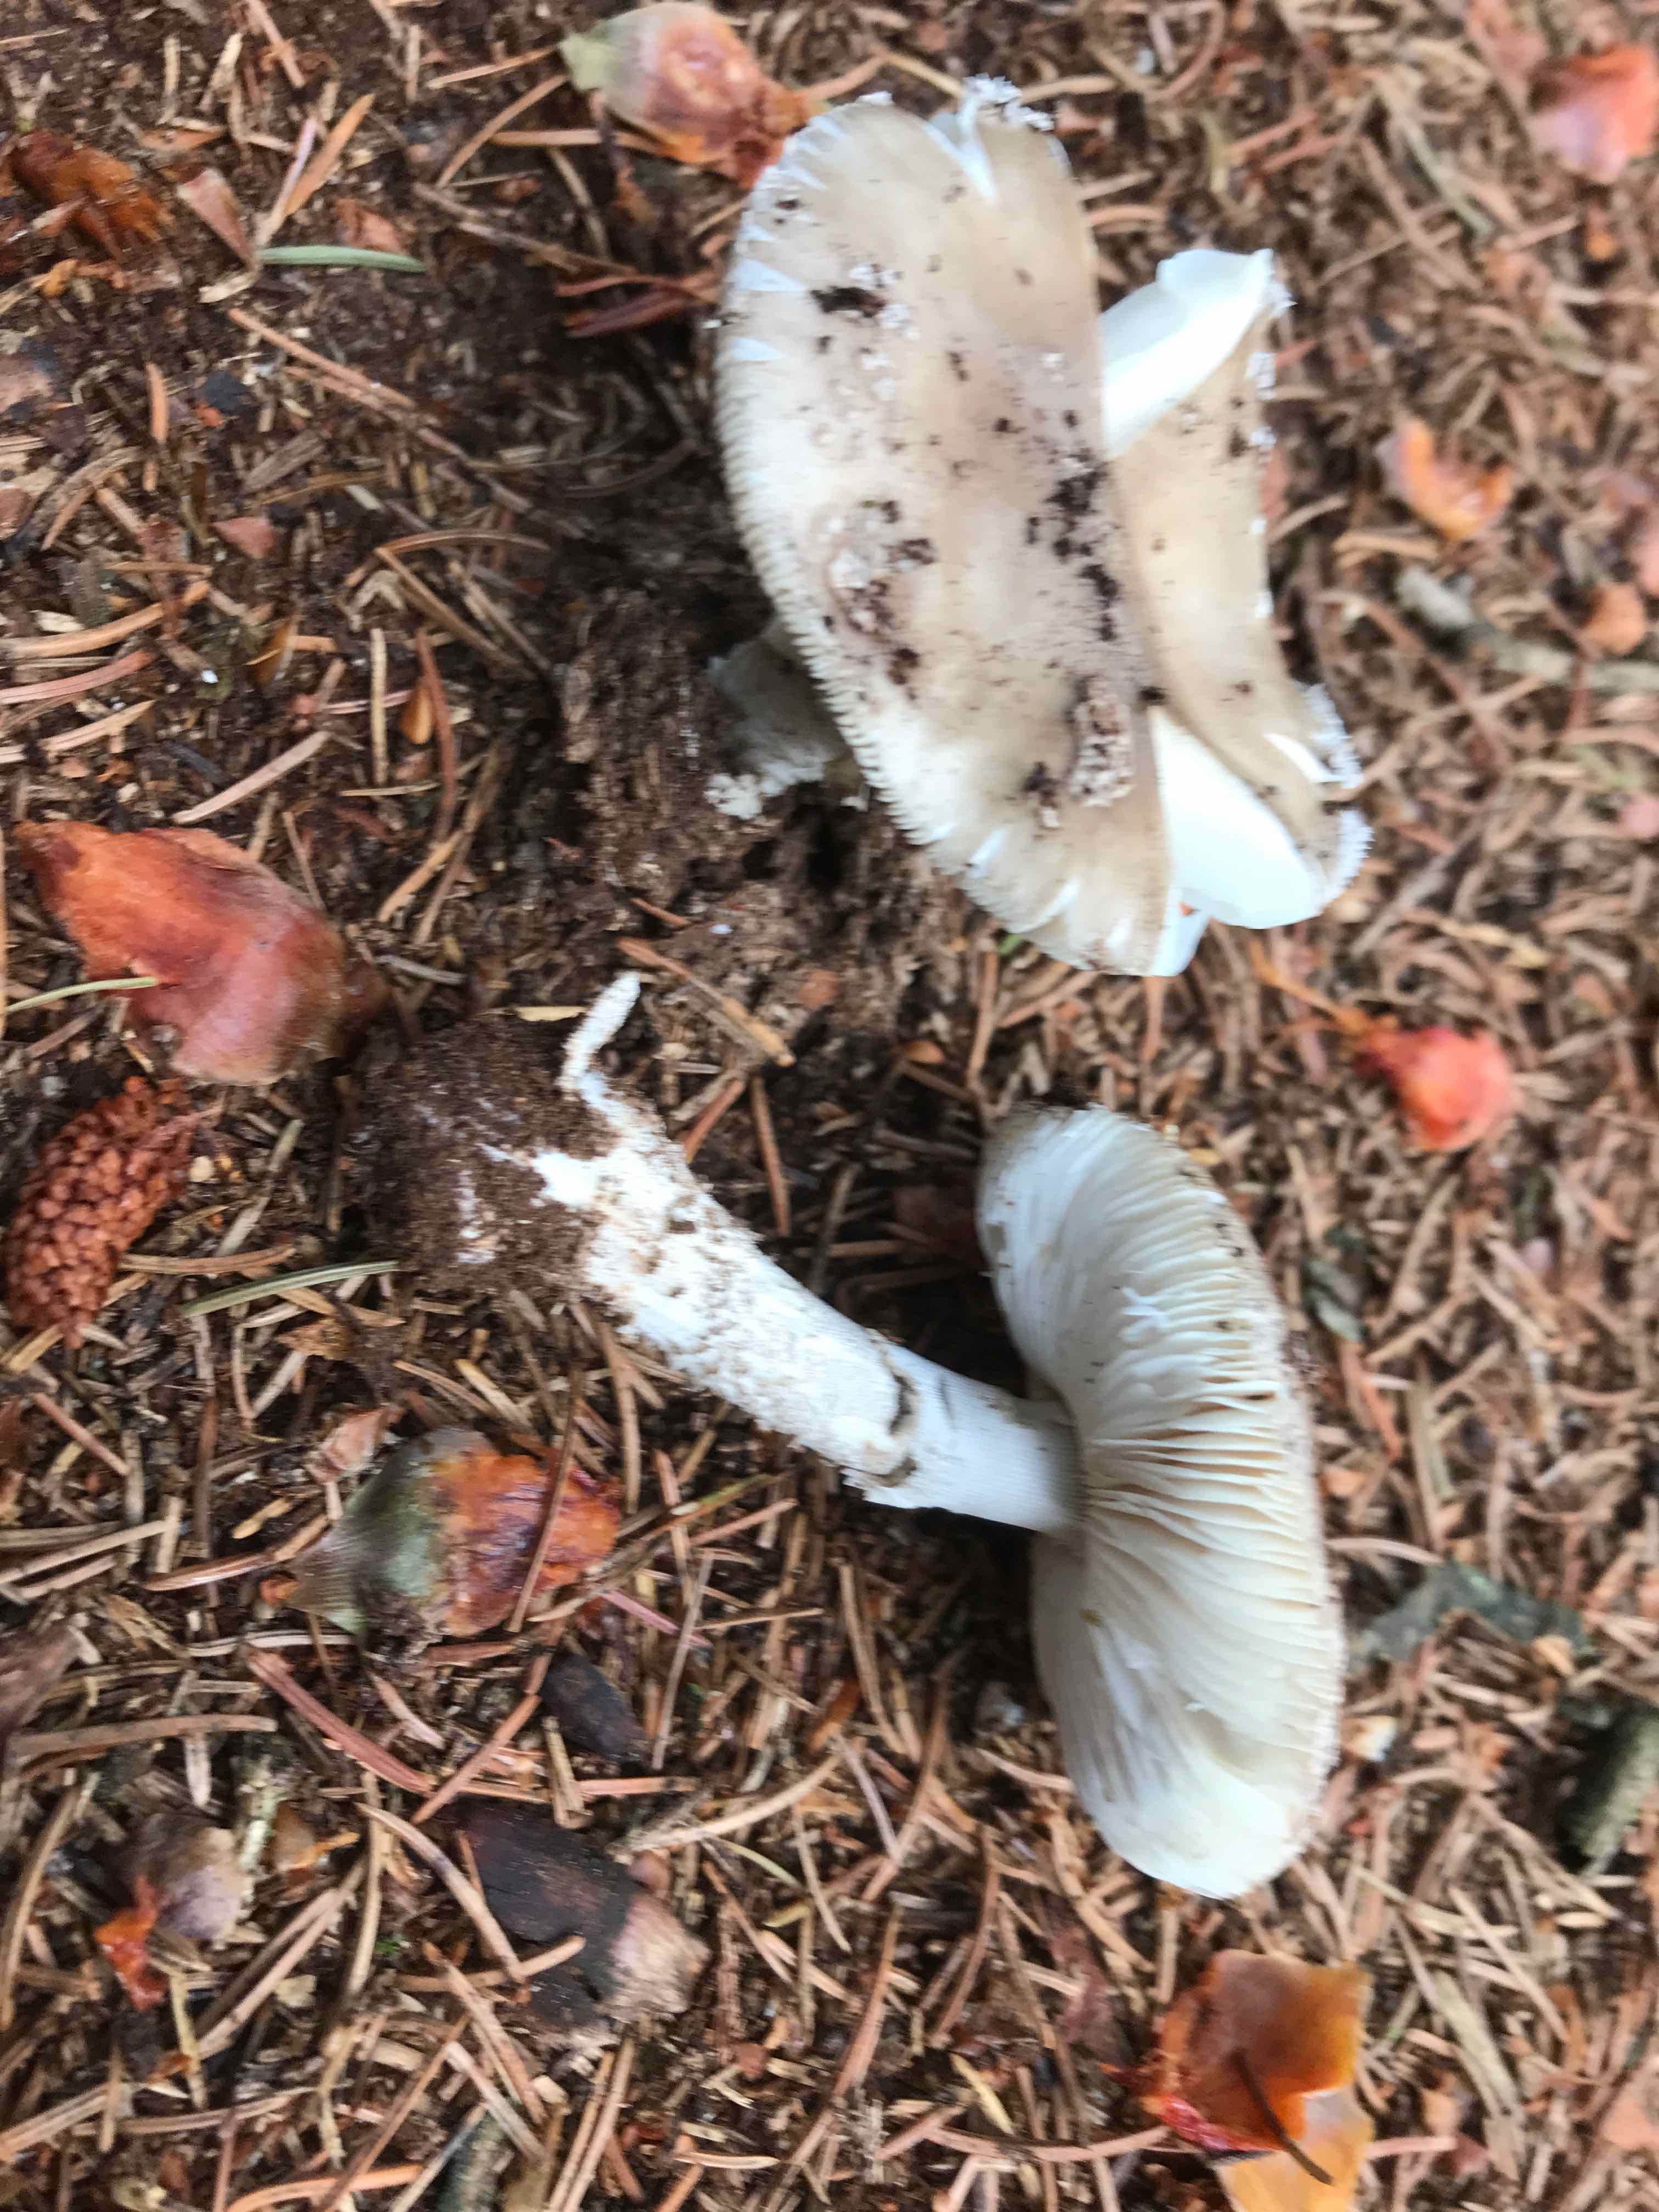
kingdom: Fungi
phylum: Basidiomycota
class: Agaricomycetes
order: Agaricales
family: Amanitaceae
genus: Amanita
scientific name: Amanita
